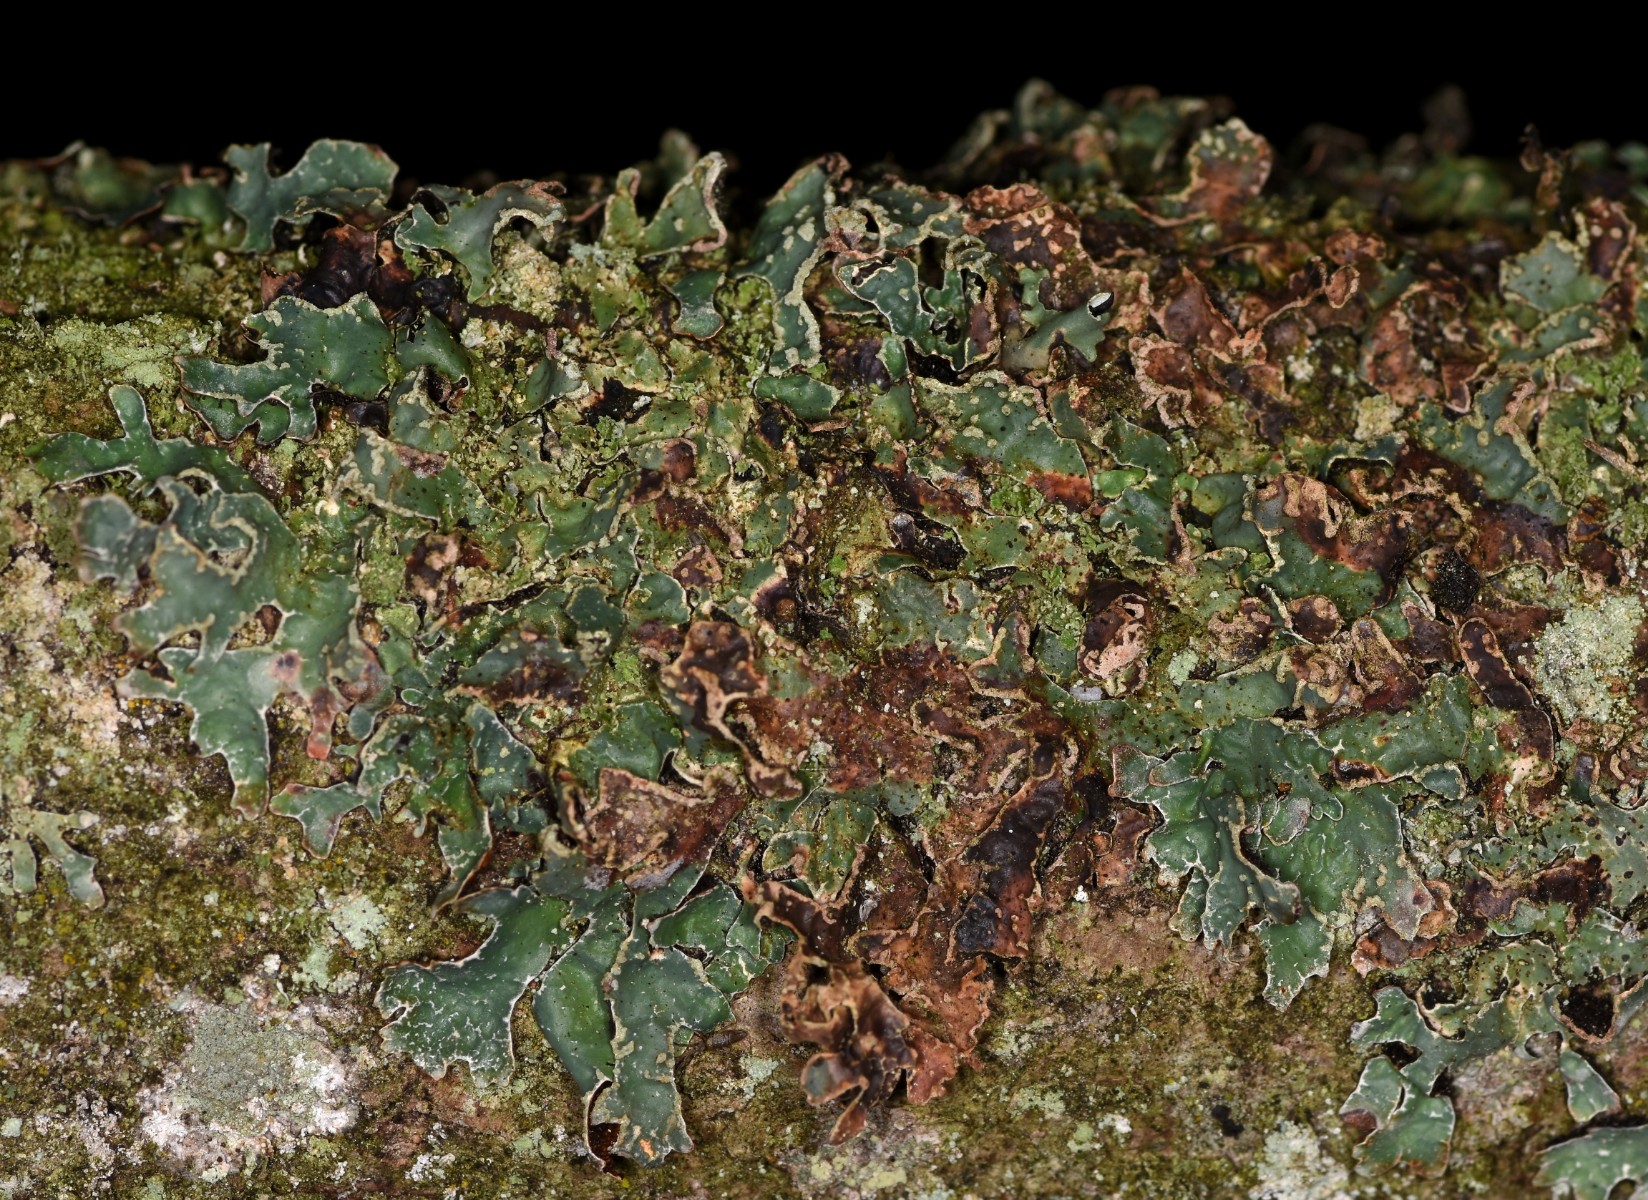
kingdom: Fungi
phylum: Ascomycota
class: Lecanoromycetes
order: Lecanorales
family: Parmeliaceae
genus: Parmelia
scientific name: Parmelia sulcata
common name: rynket skållav
